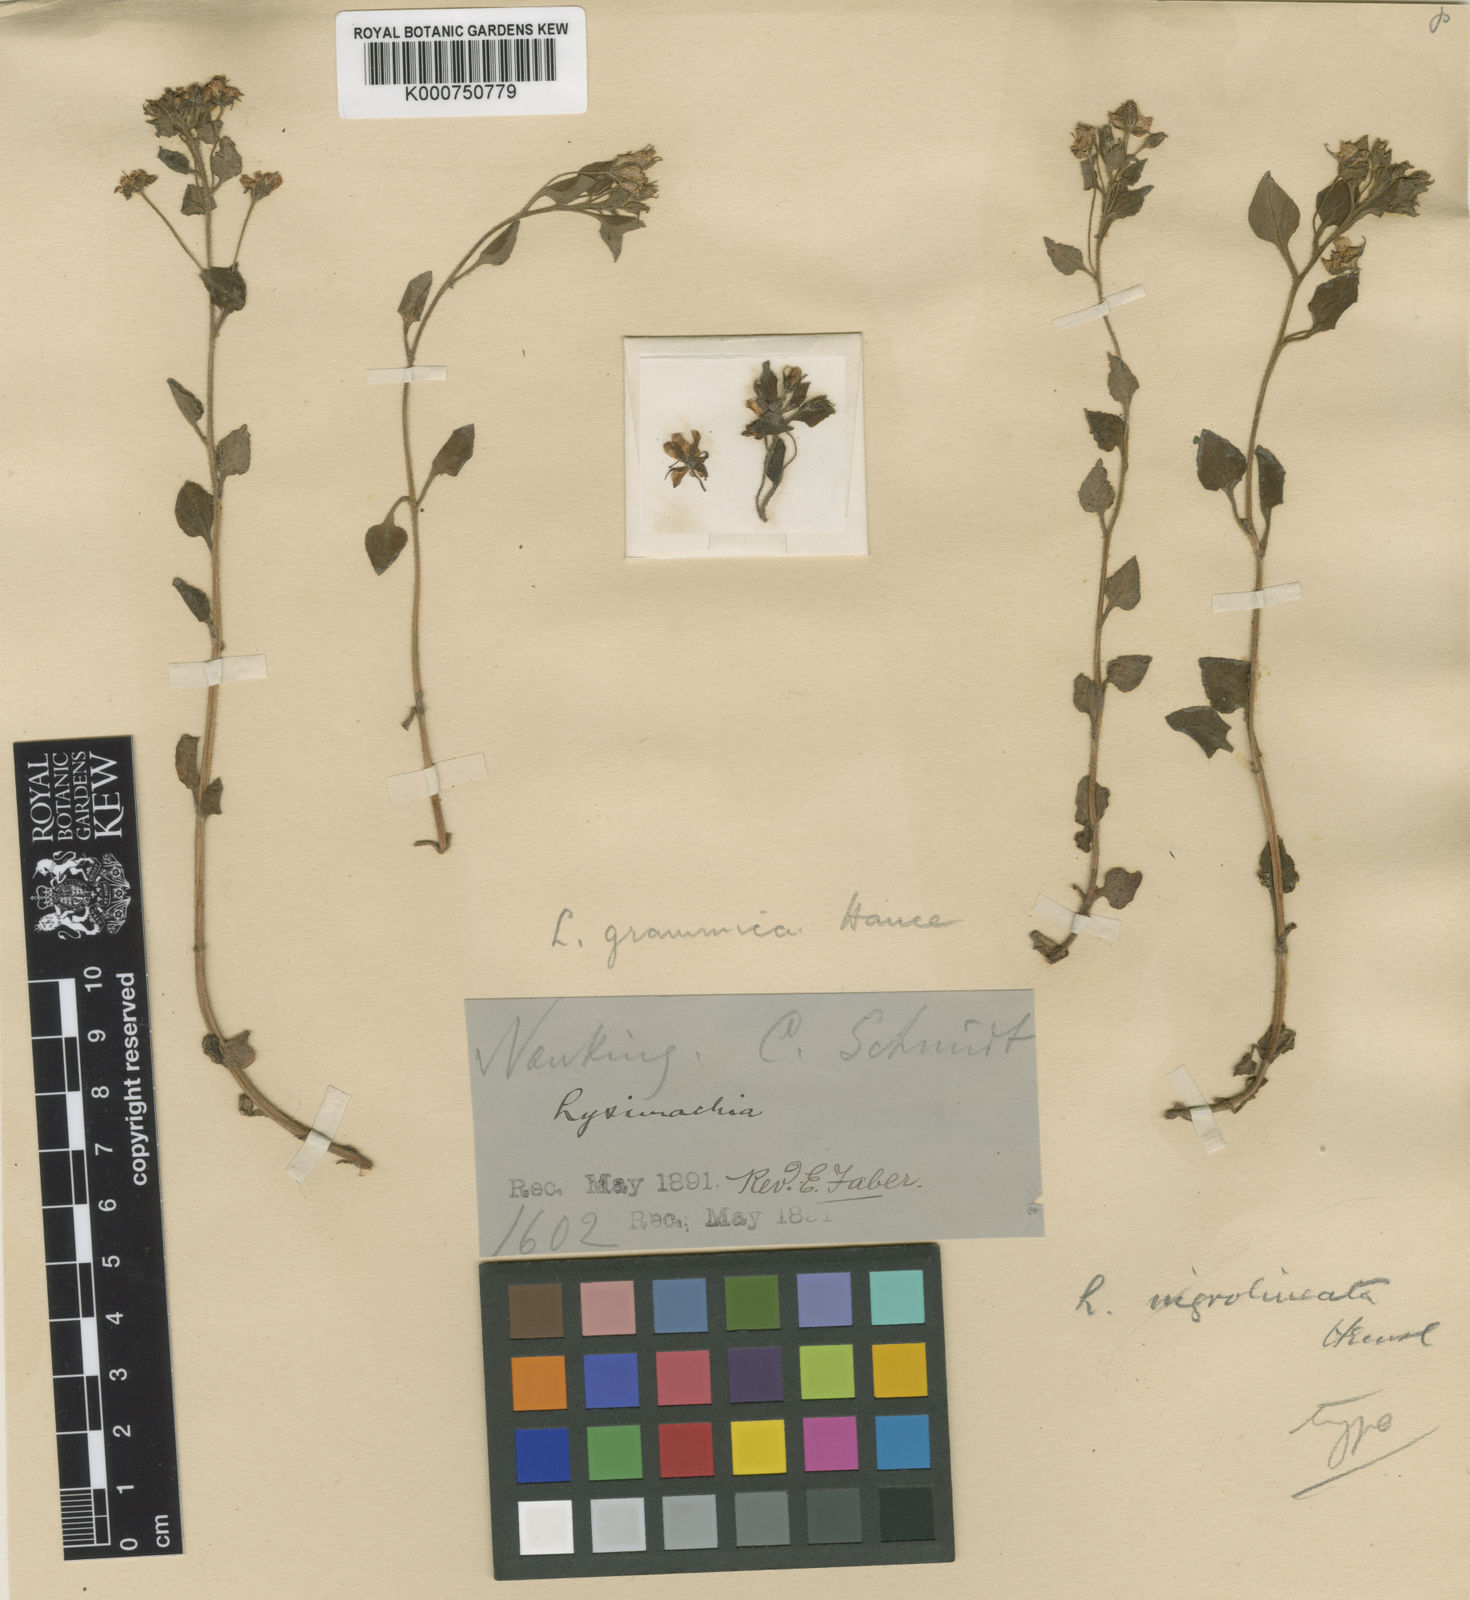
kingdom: Plantae
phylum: Tracheophyta
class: Magnoliopsida
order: Ericales
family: Primulaceae
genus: Lysimachia
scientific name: Lysimachia grammica
